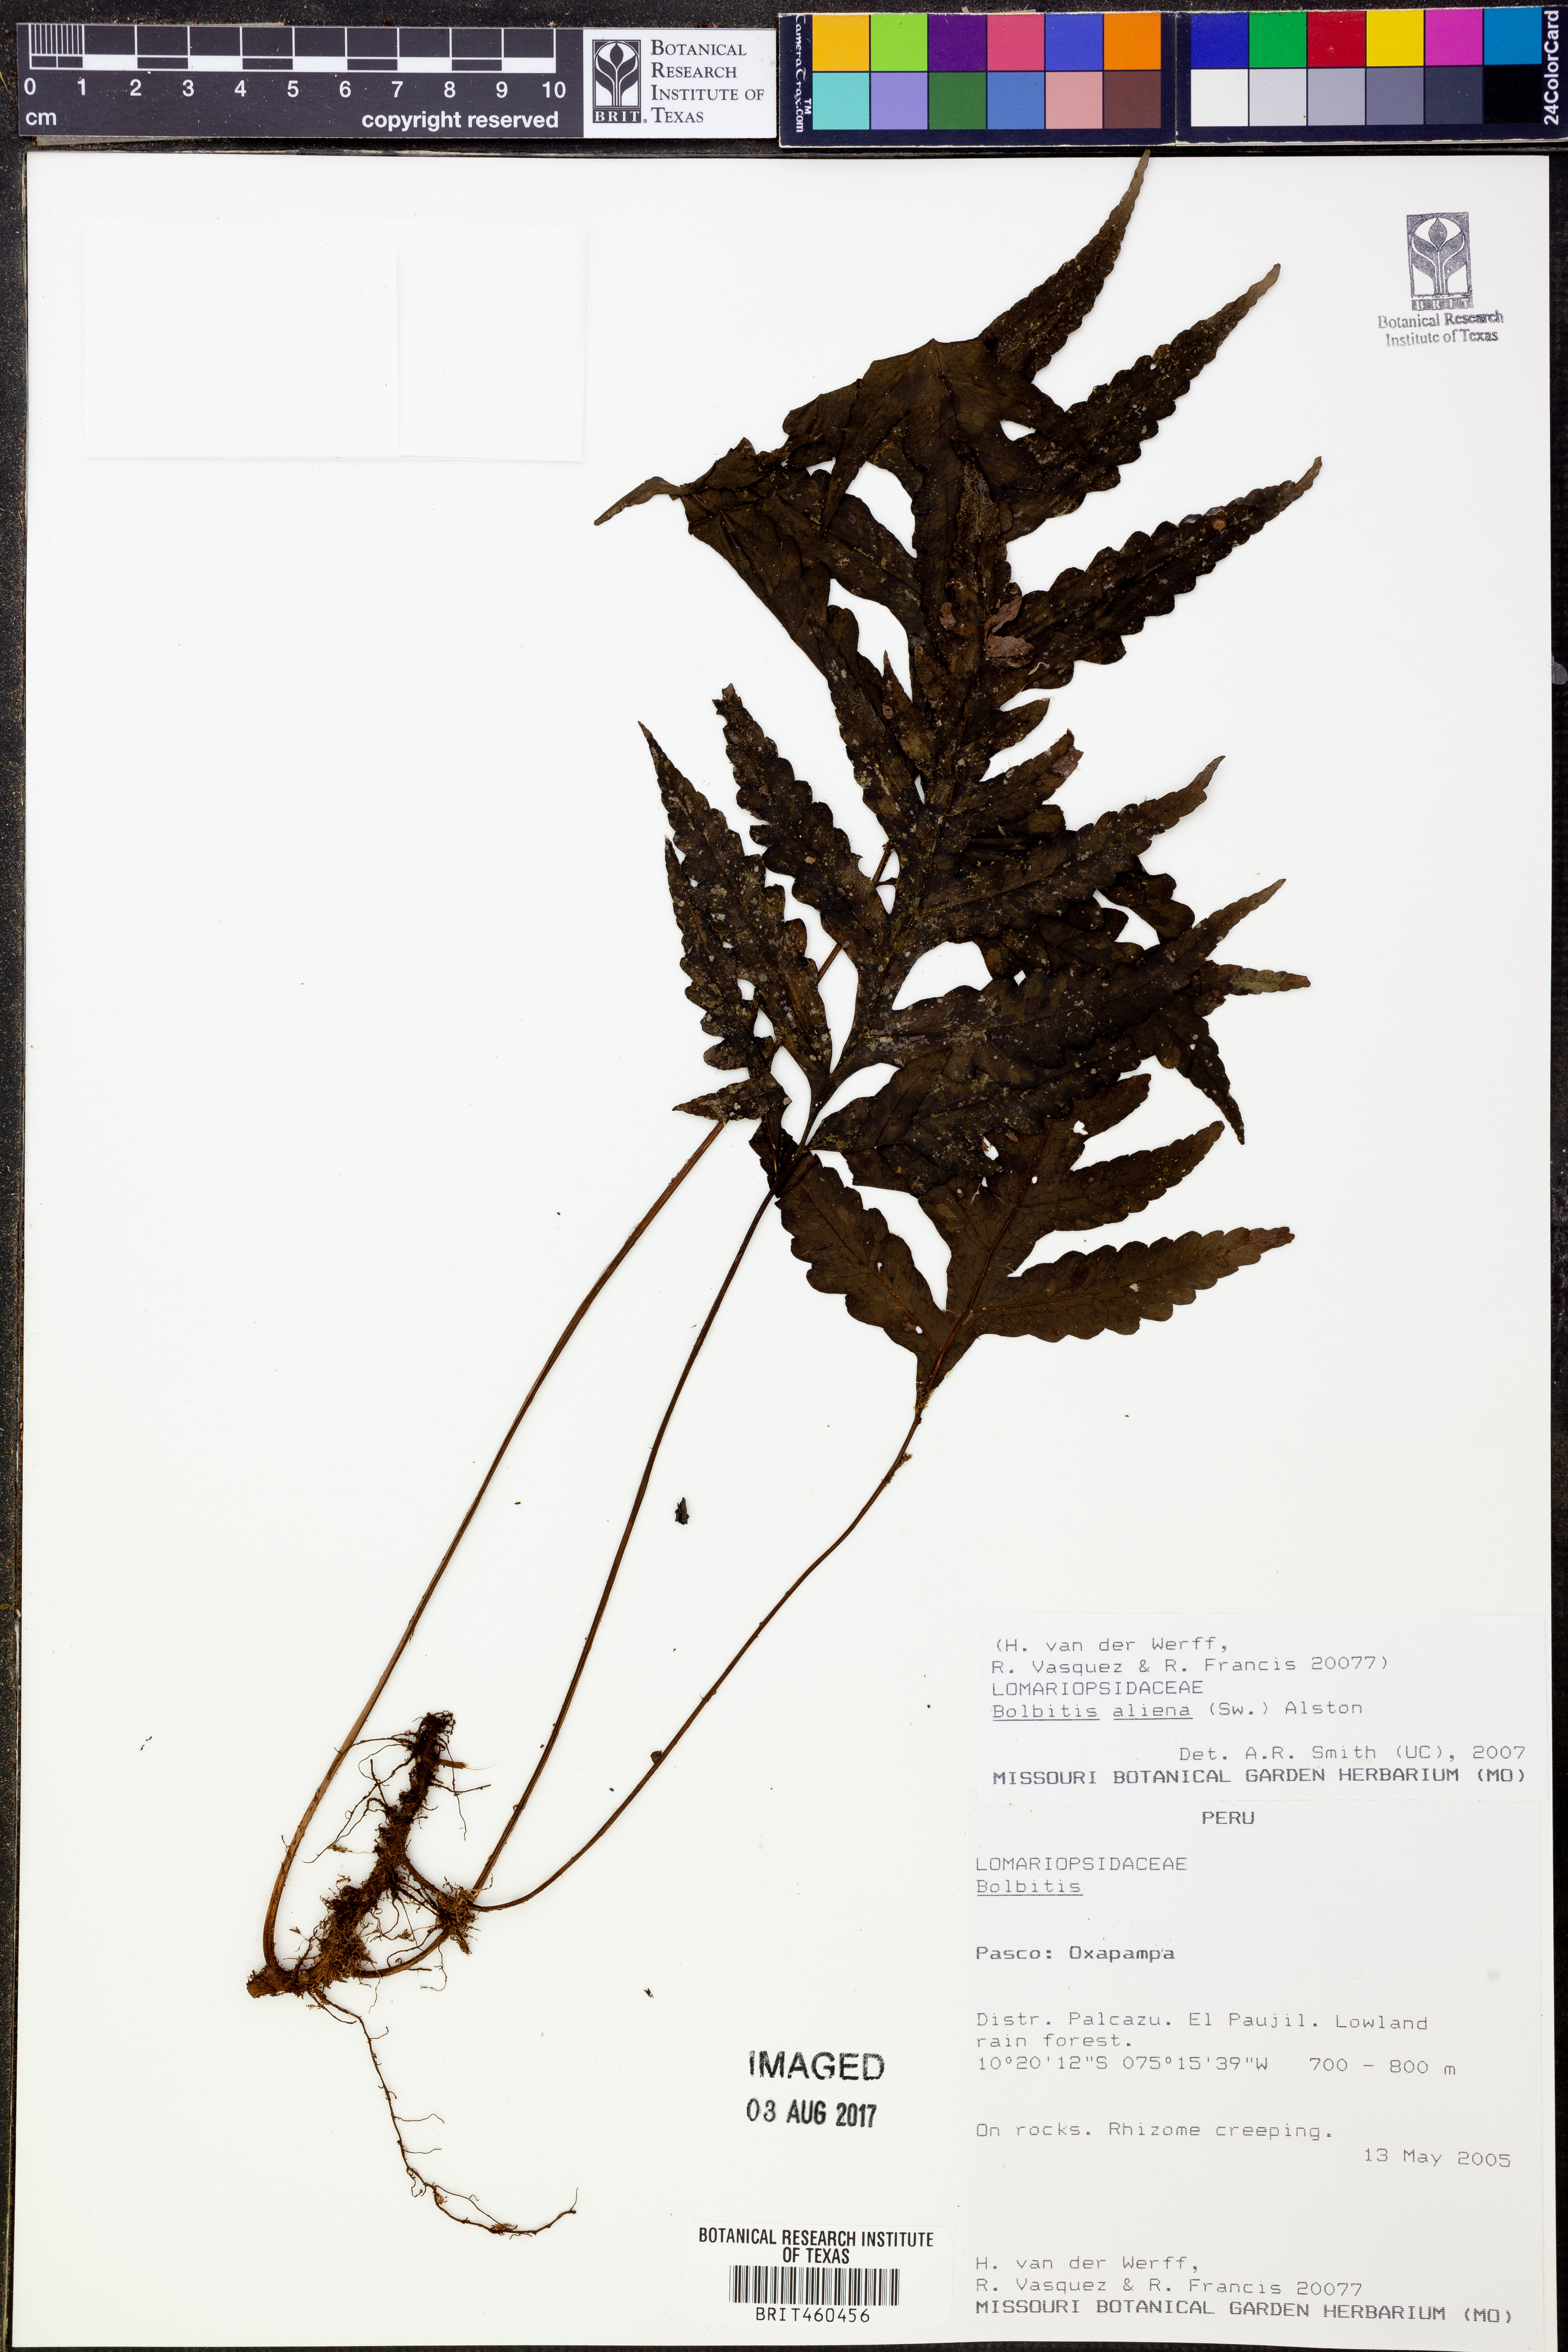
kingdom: Plantae
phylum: Tracheophyta
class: Polypodiopsida
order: Polypodiales
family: Dryopteridaceae
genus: Bolbitis
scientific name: Bolbitis aliena
